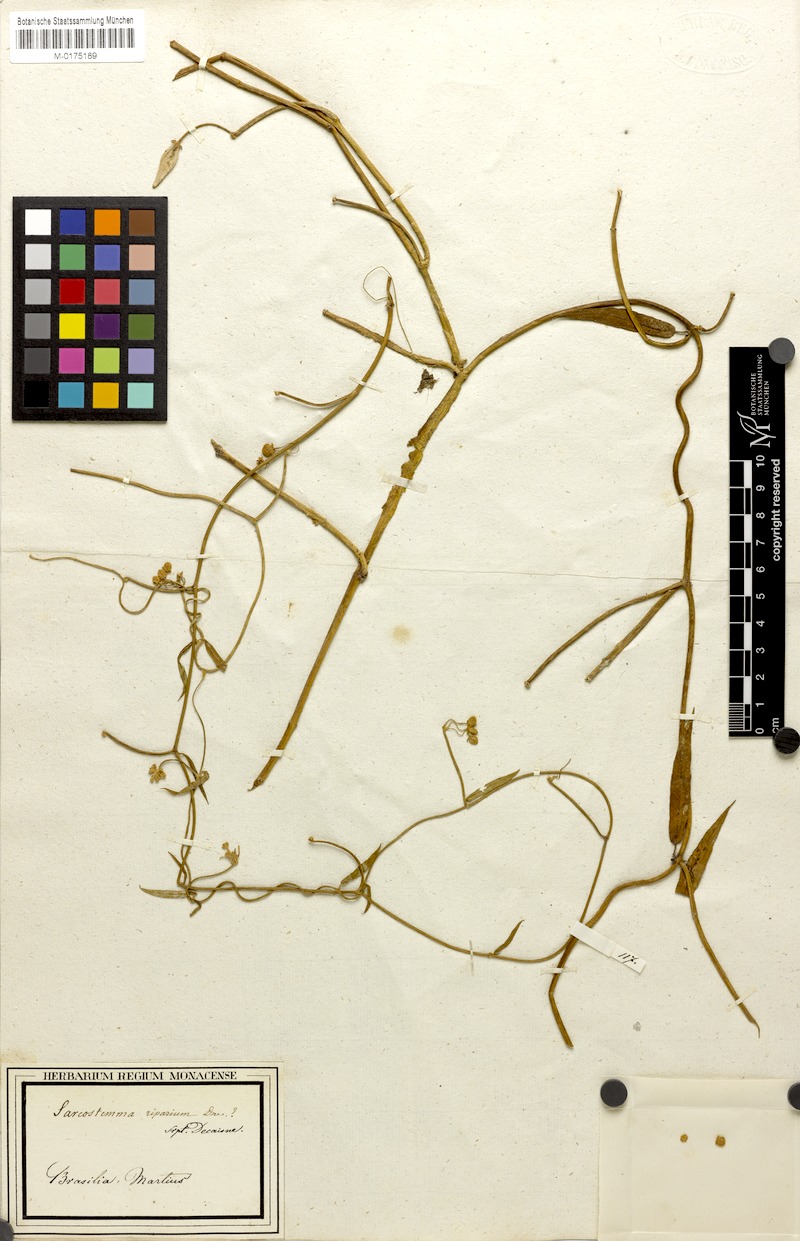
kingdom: Plantae
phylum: Tracheophyta
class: Magnoliopsida
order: Gentianales
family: Apocynaceae
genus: Funastrum
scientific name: Funastrum clausum
